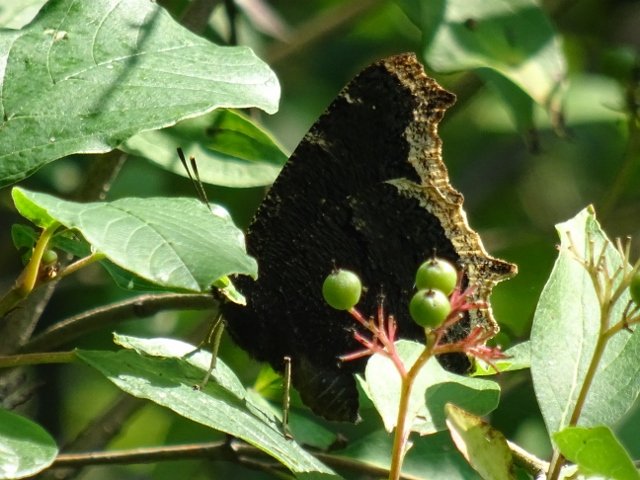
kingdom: Animalia
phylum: Arthropoda
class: Insecta
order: Lepidoptera
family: Nymphalidae
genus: Nymphalis
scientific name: Nymphalis antiopa
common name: Mourning Cloak
